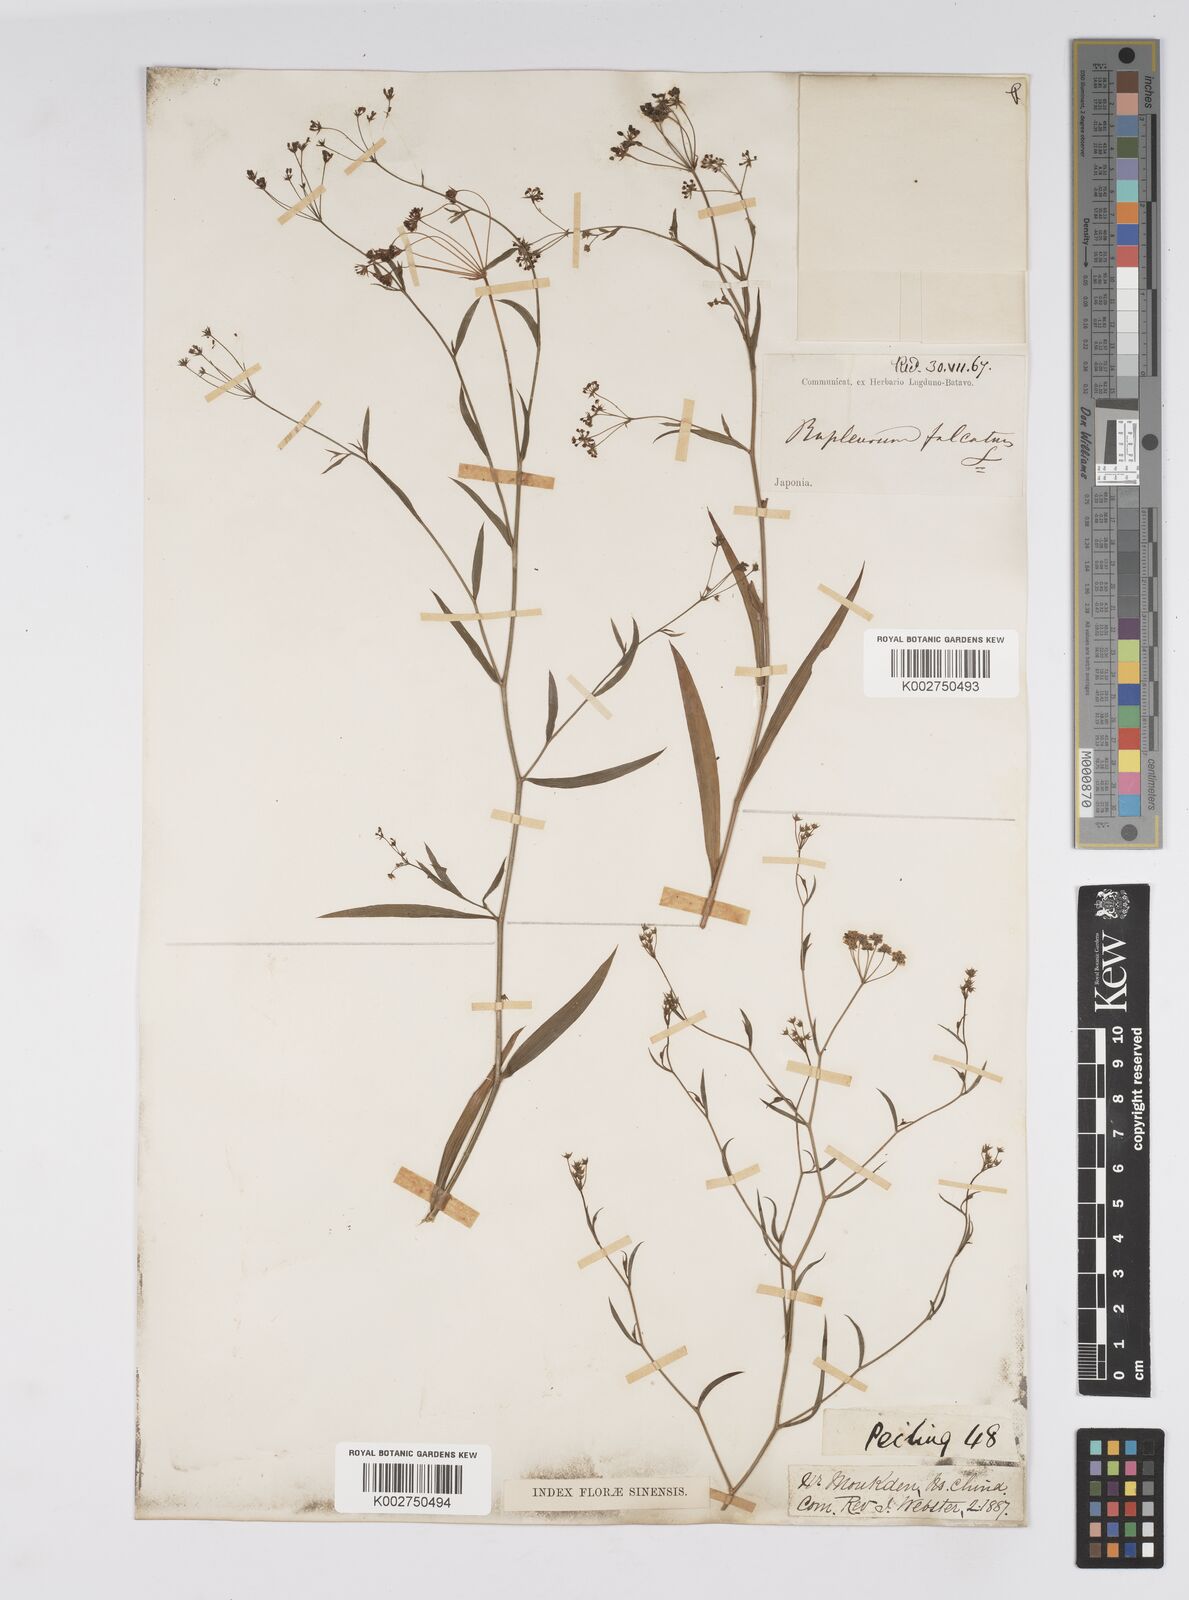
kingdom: Plantae
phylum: Tracheophyta
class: Magnoliopsida
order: Apiales
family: Apiaceae
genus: Bupleurum
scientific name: Bupleurum krylovianum
